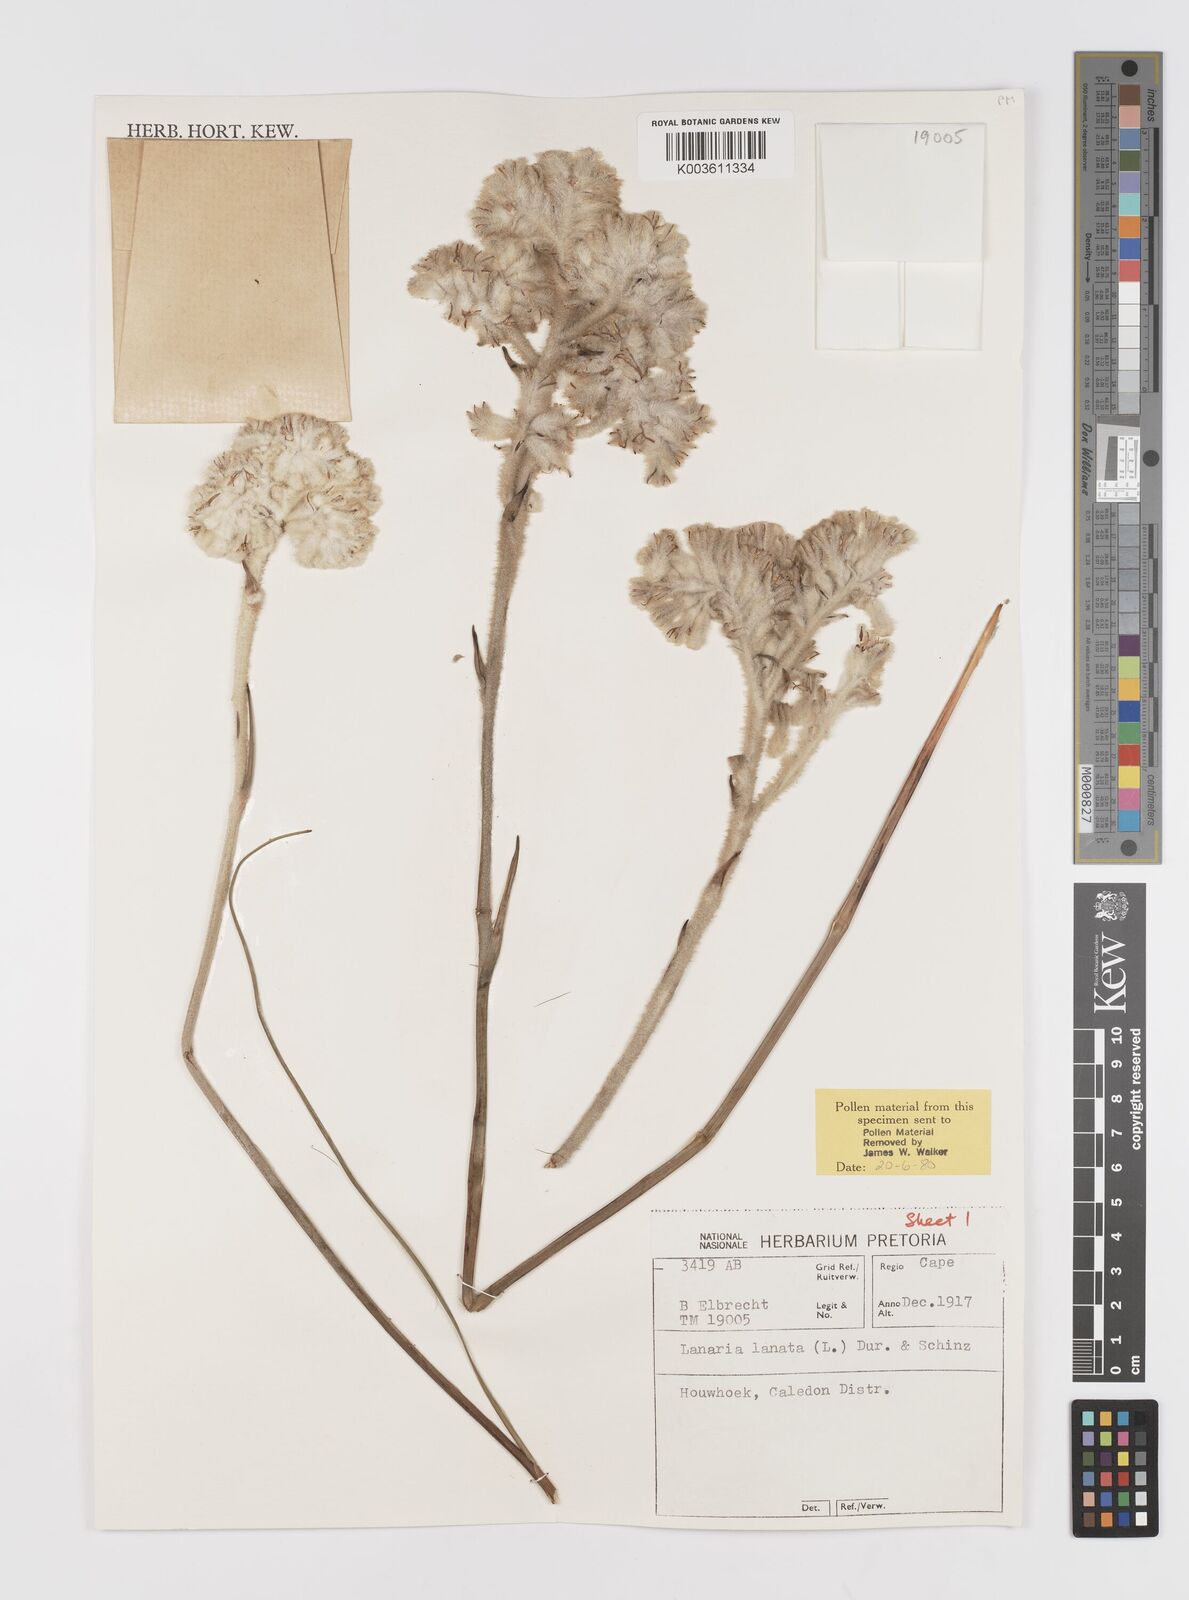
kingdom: Plantae
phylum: Tracheophyta
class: Liliopsida
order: Asparagales
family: Lanariaceae
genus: Lanaria
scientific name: Lanaria lanata
